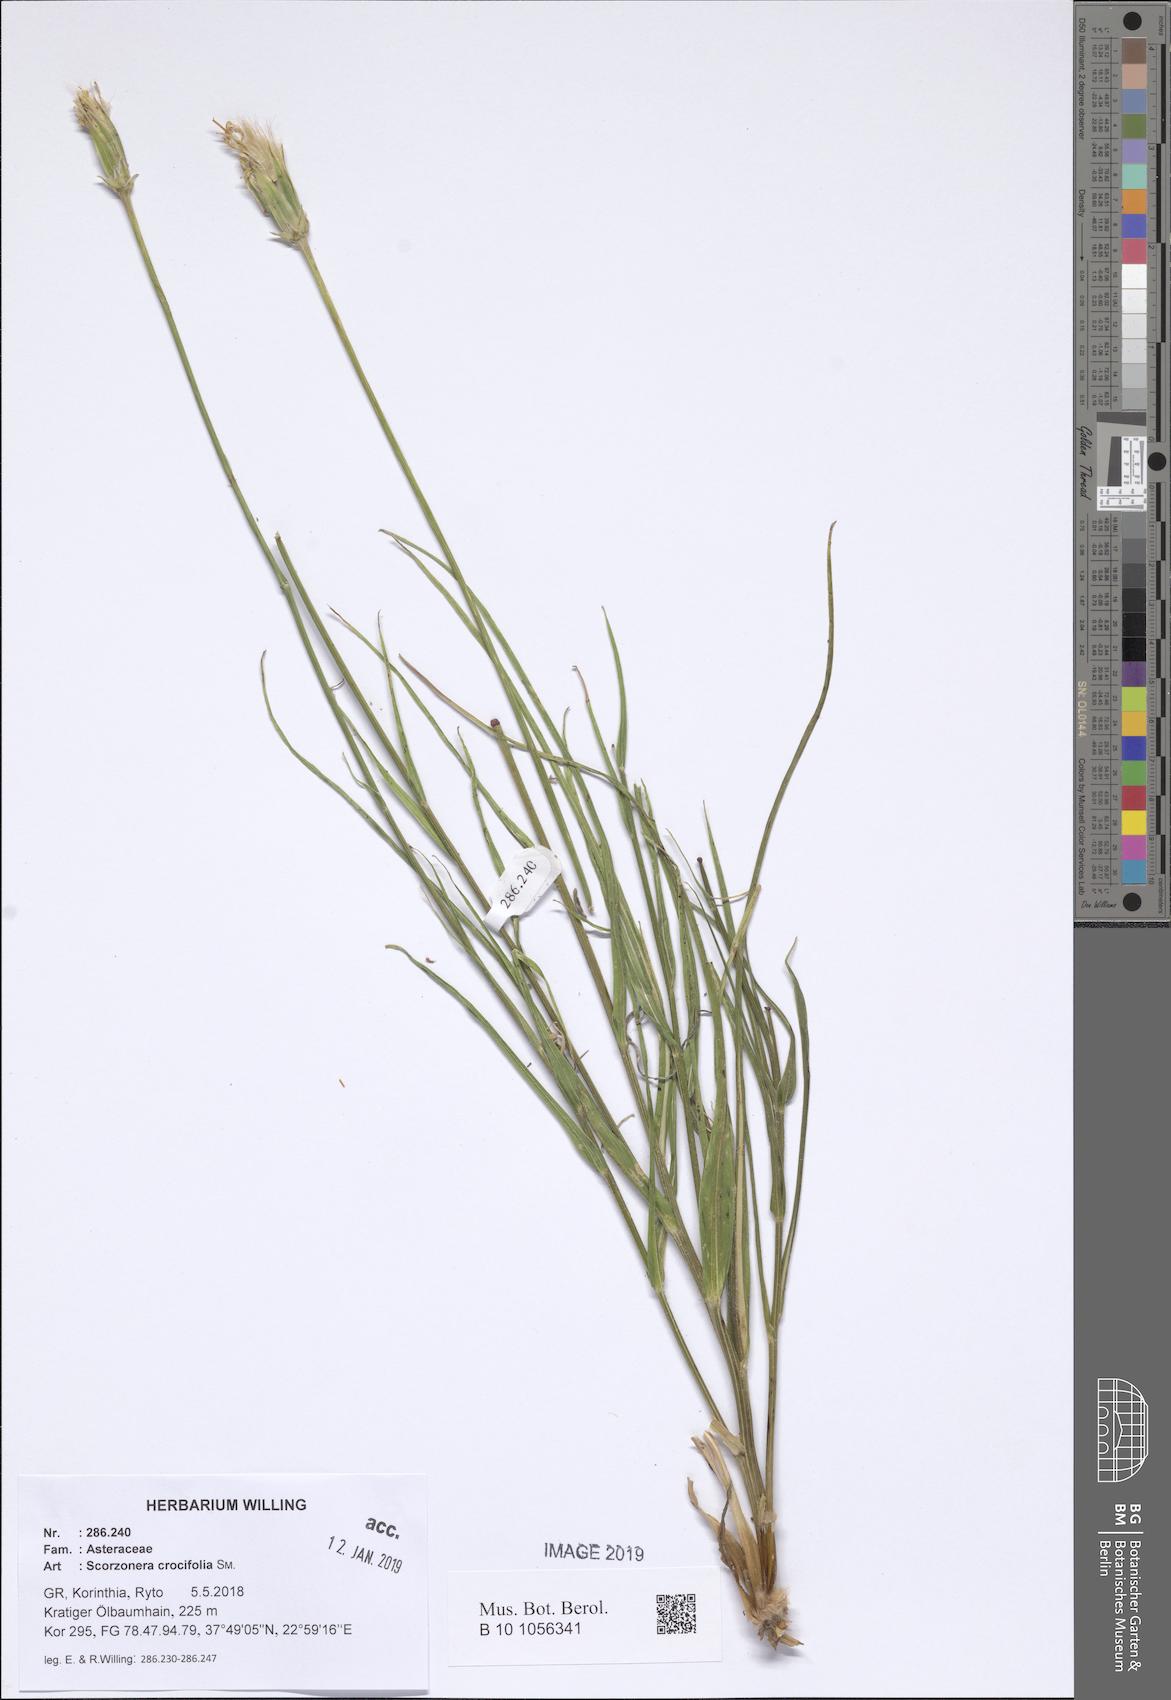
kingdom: Plantae
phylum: Tracheophyta
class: Magnoliopsida
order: Asterales
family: Asteraceae
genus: Pseudopodospermum
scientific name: Pseudopodospermum crocifolium
